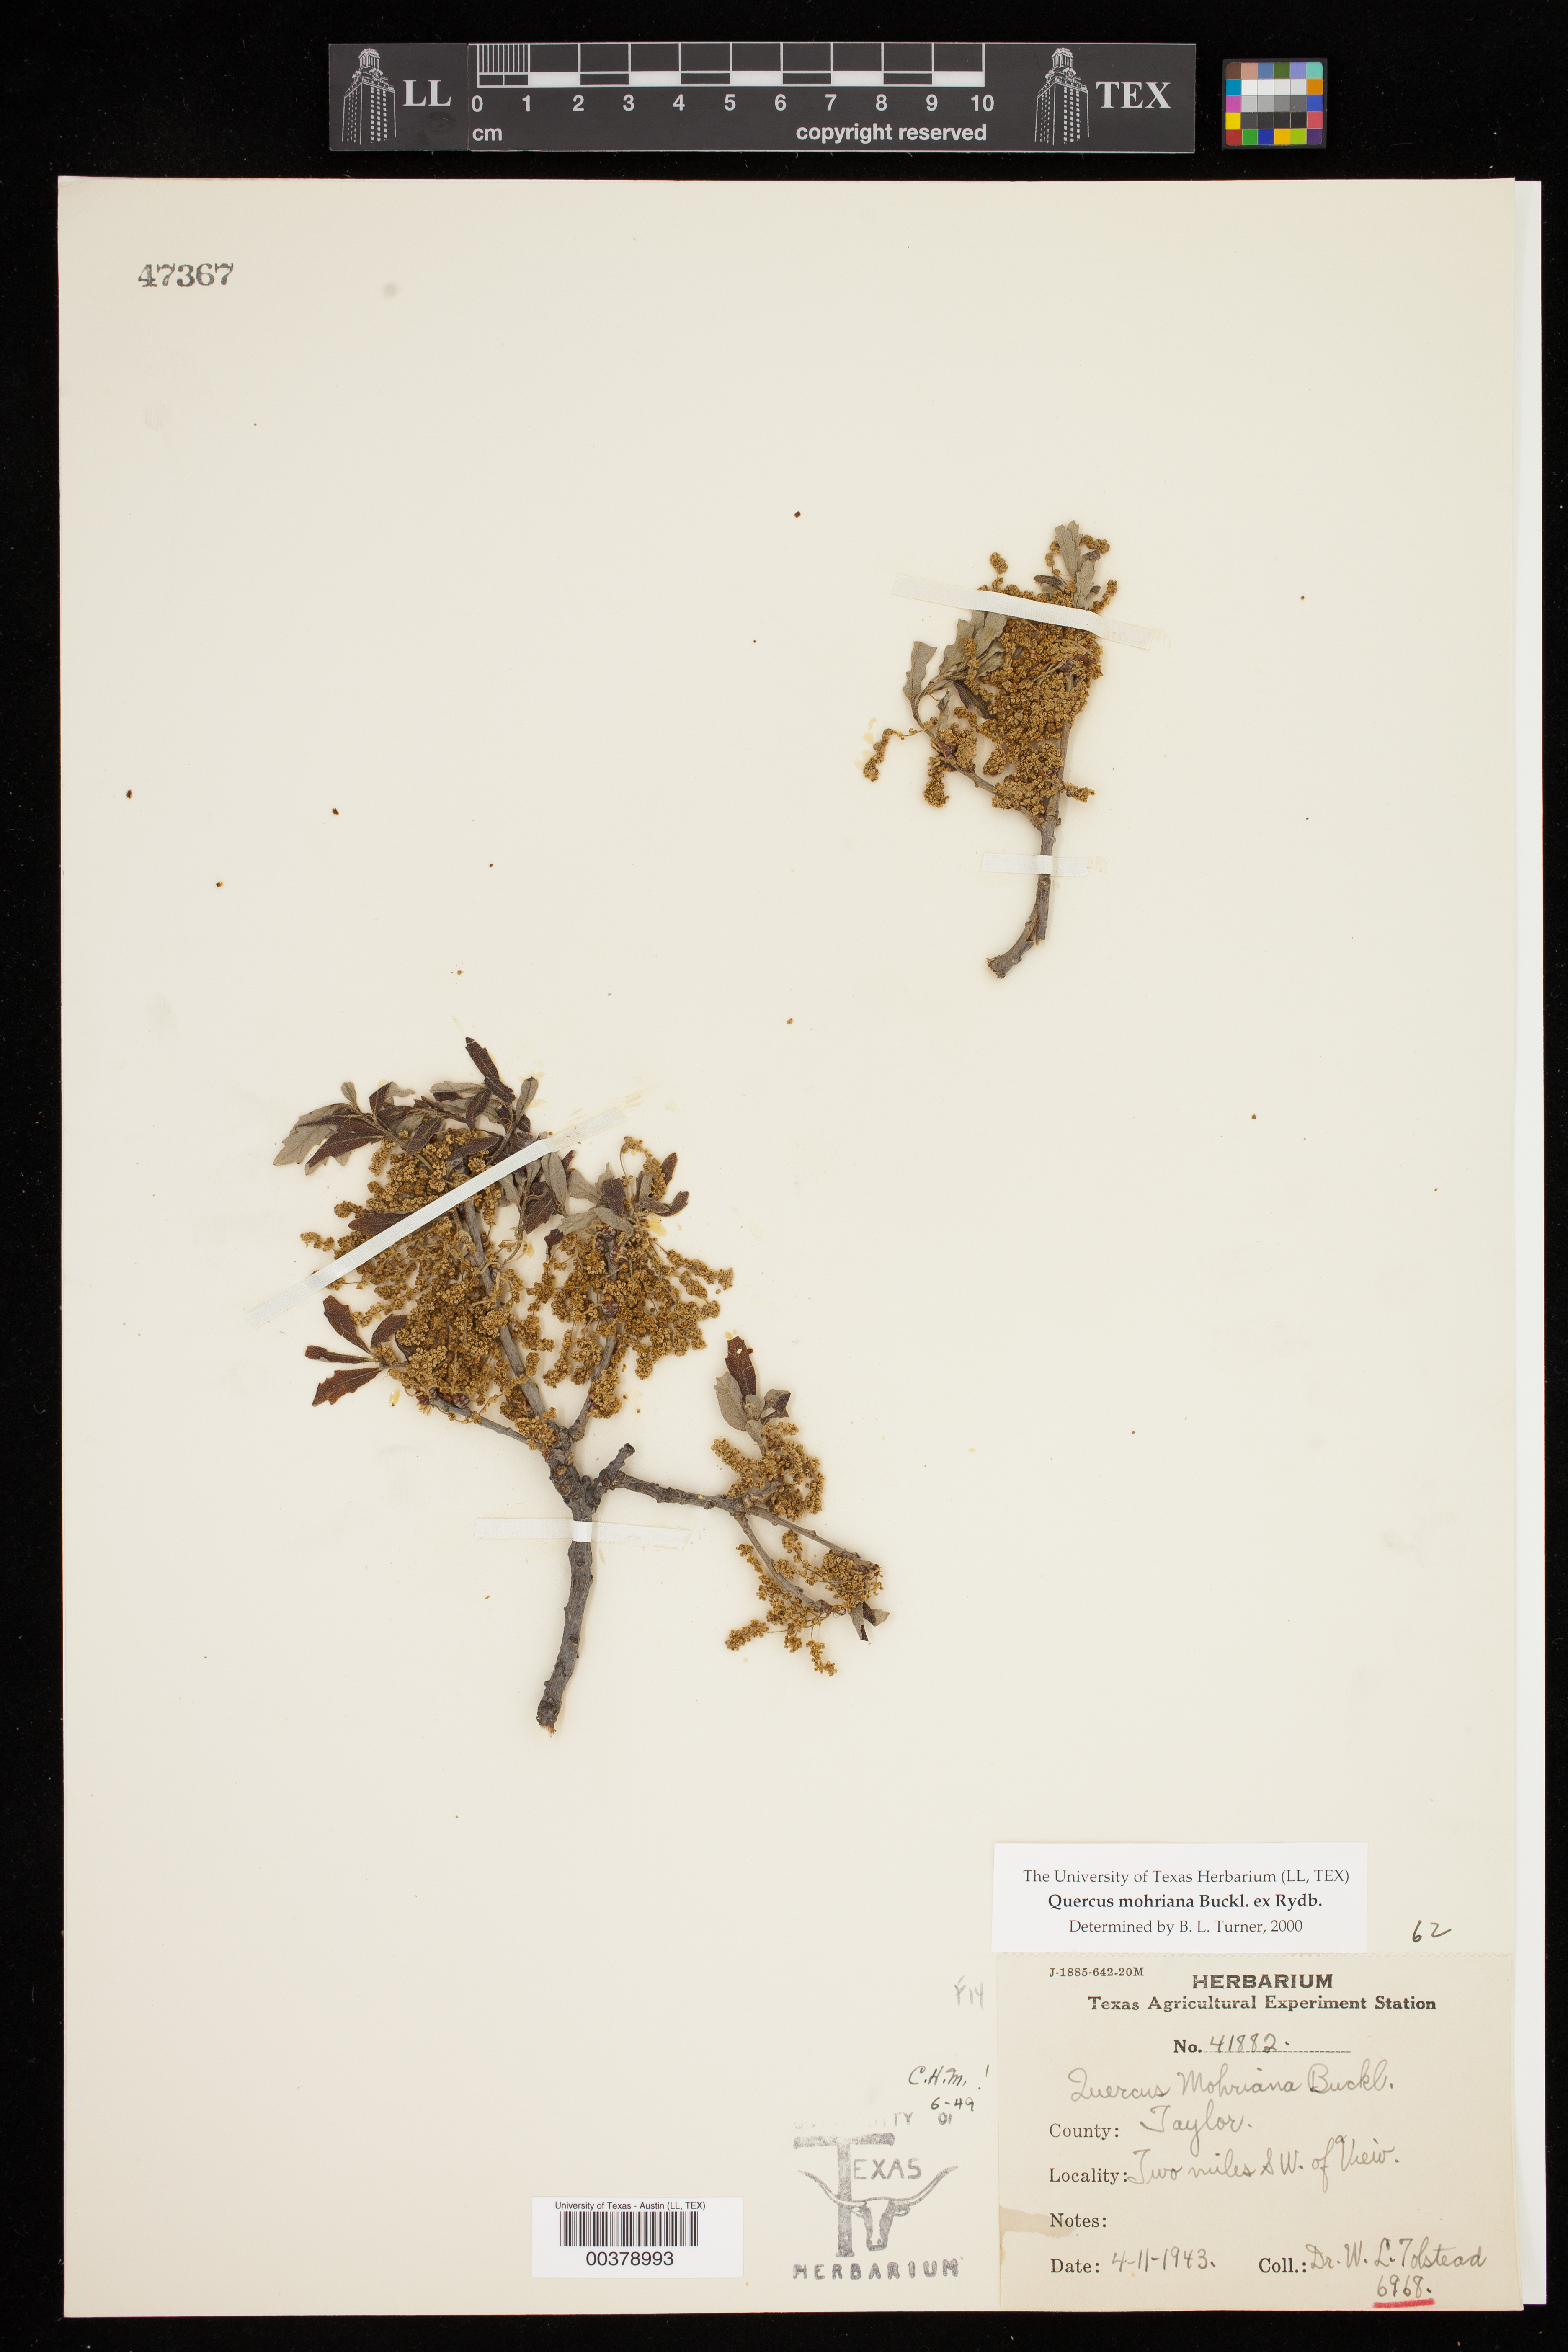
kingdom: Plantae
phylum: Tracheophyta
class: Magnoliopsida
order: Fagales
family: Fagaceae
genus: Quercus
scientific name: Quercus mohriana
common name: Mohr oak
